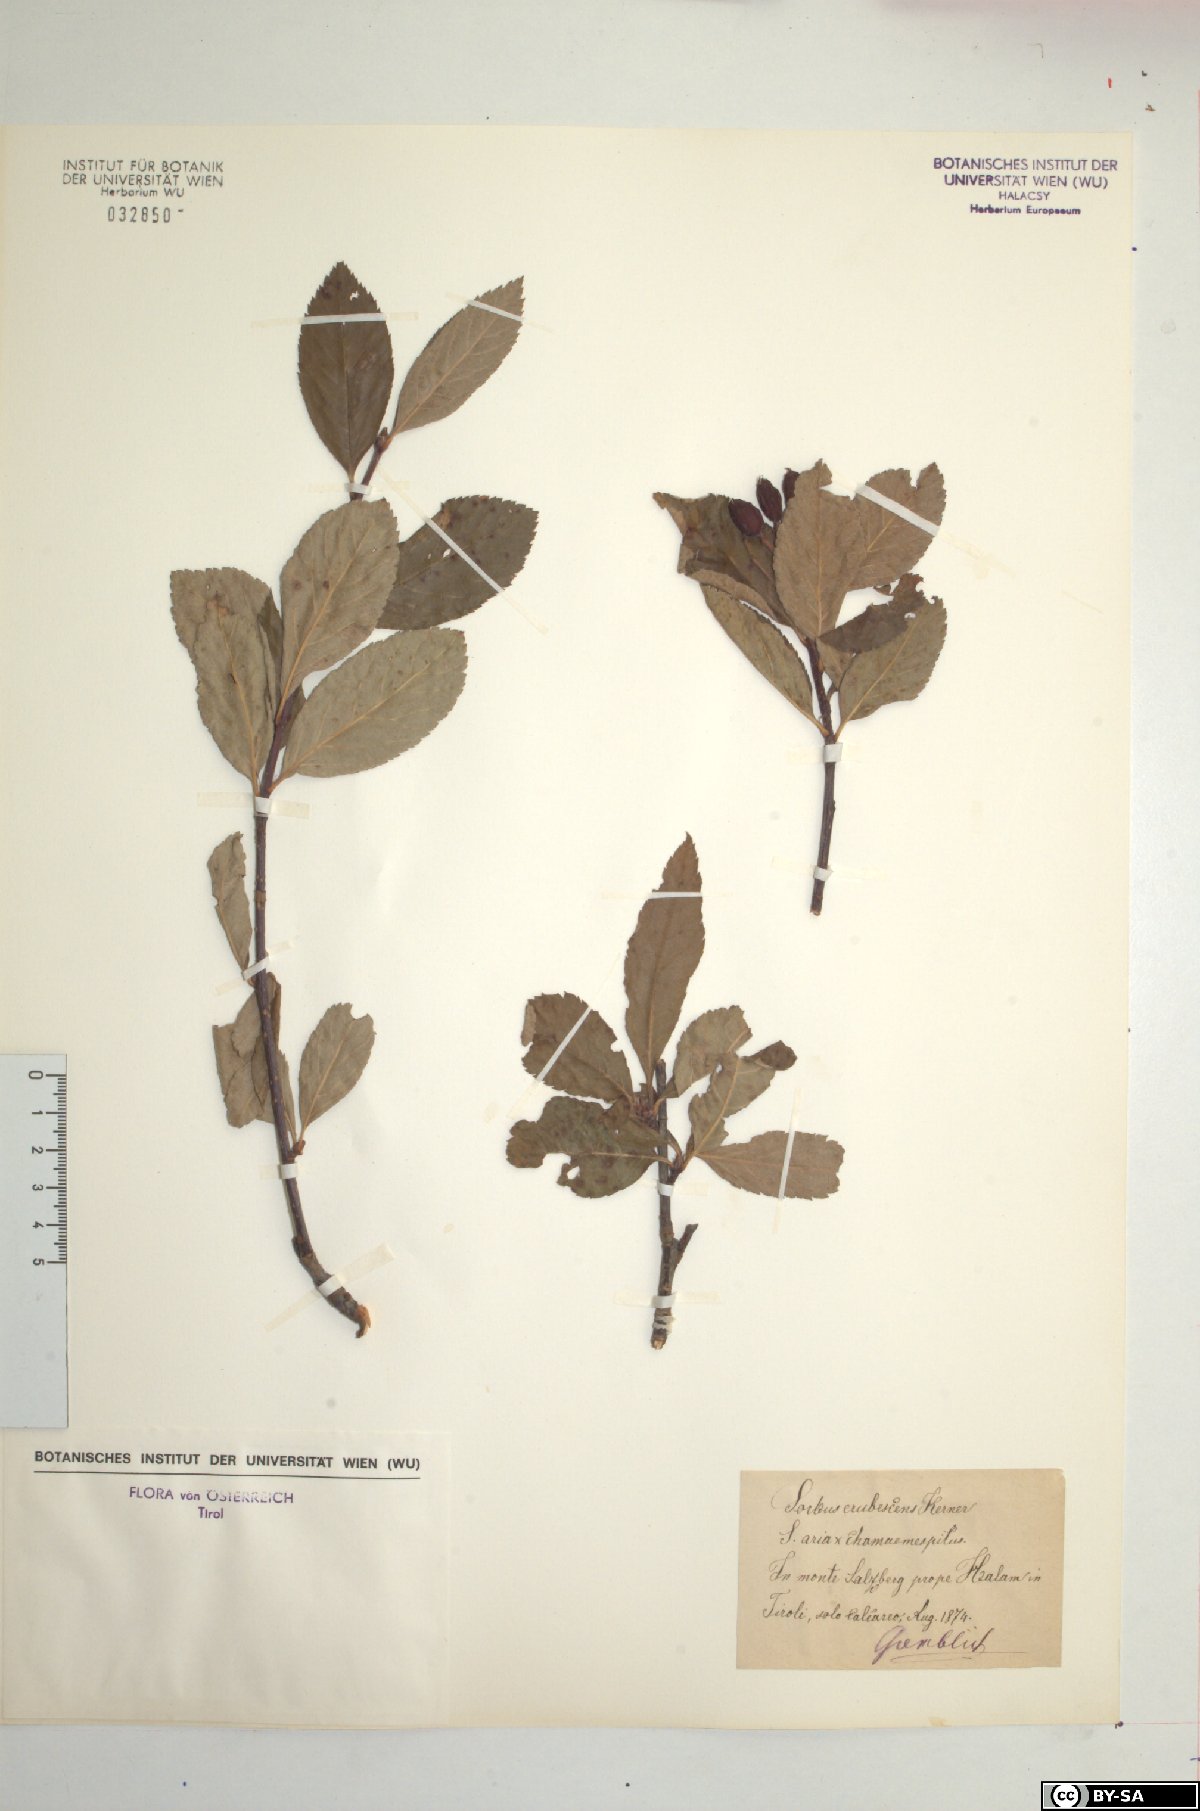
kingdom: Plantae
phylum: Tracheophyta
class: Magnoliopsida
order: Rosales
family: Rosaceae
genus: Majovskya
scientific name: Majovskya sudetica
